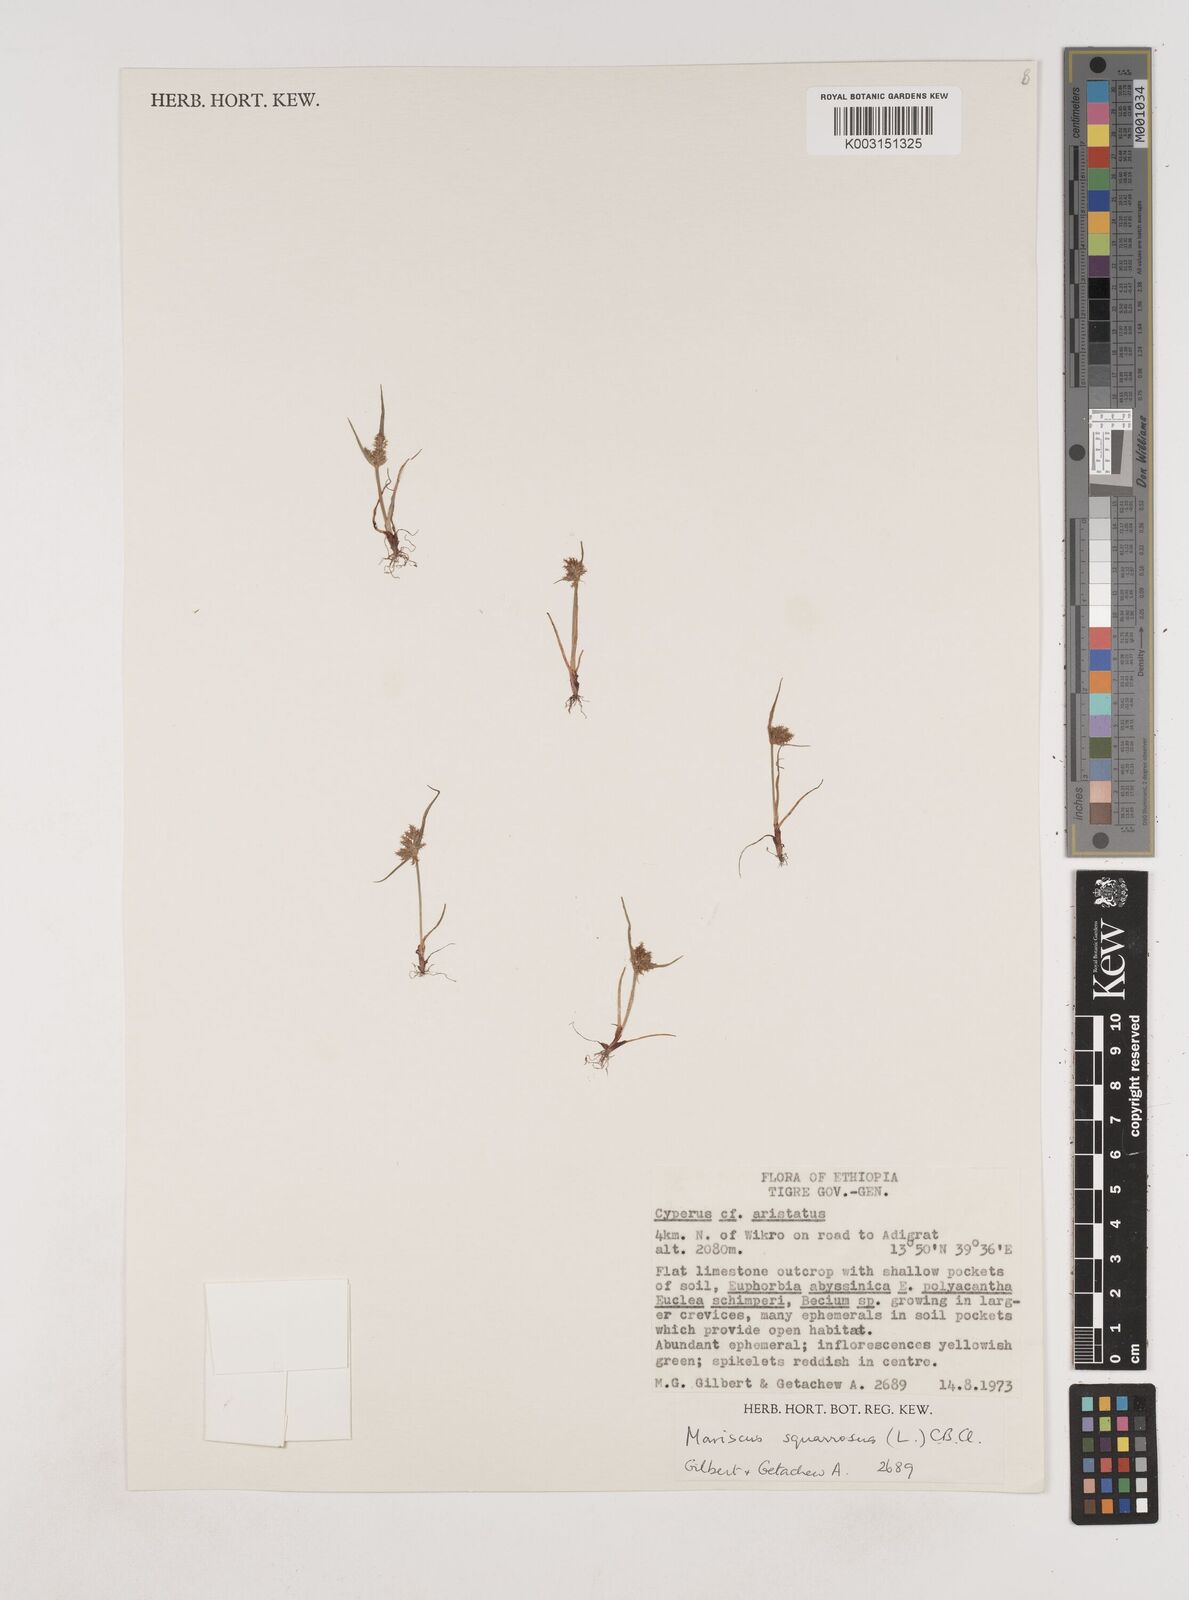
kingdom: Plantae
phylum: Tracheophyta
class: Liliopsida
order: Poales
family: Cyperaceae
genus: Cyperus
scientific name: Cyperus squarrosus
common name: Awned cyperus
